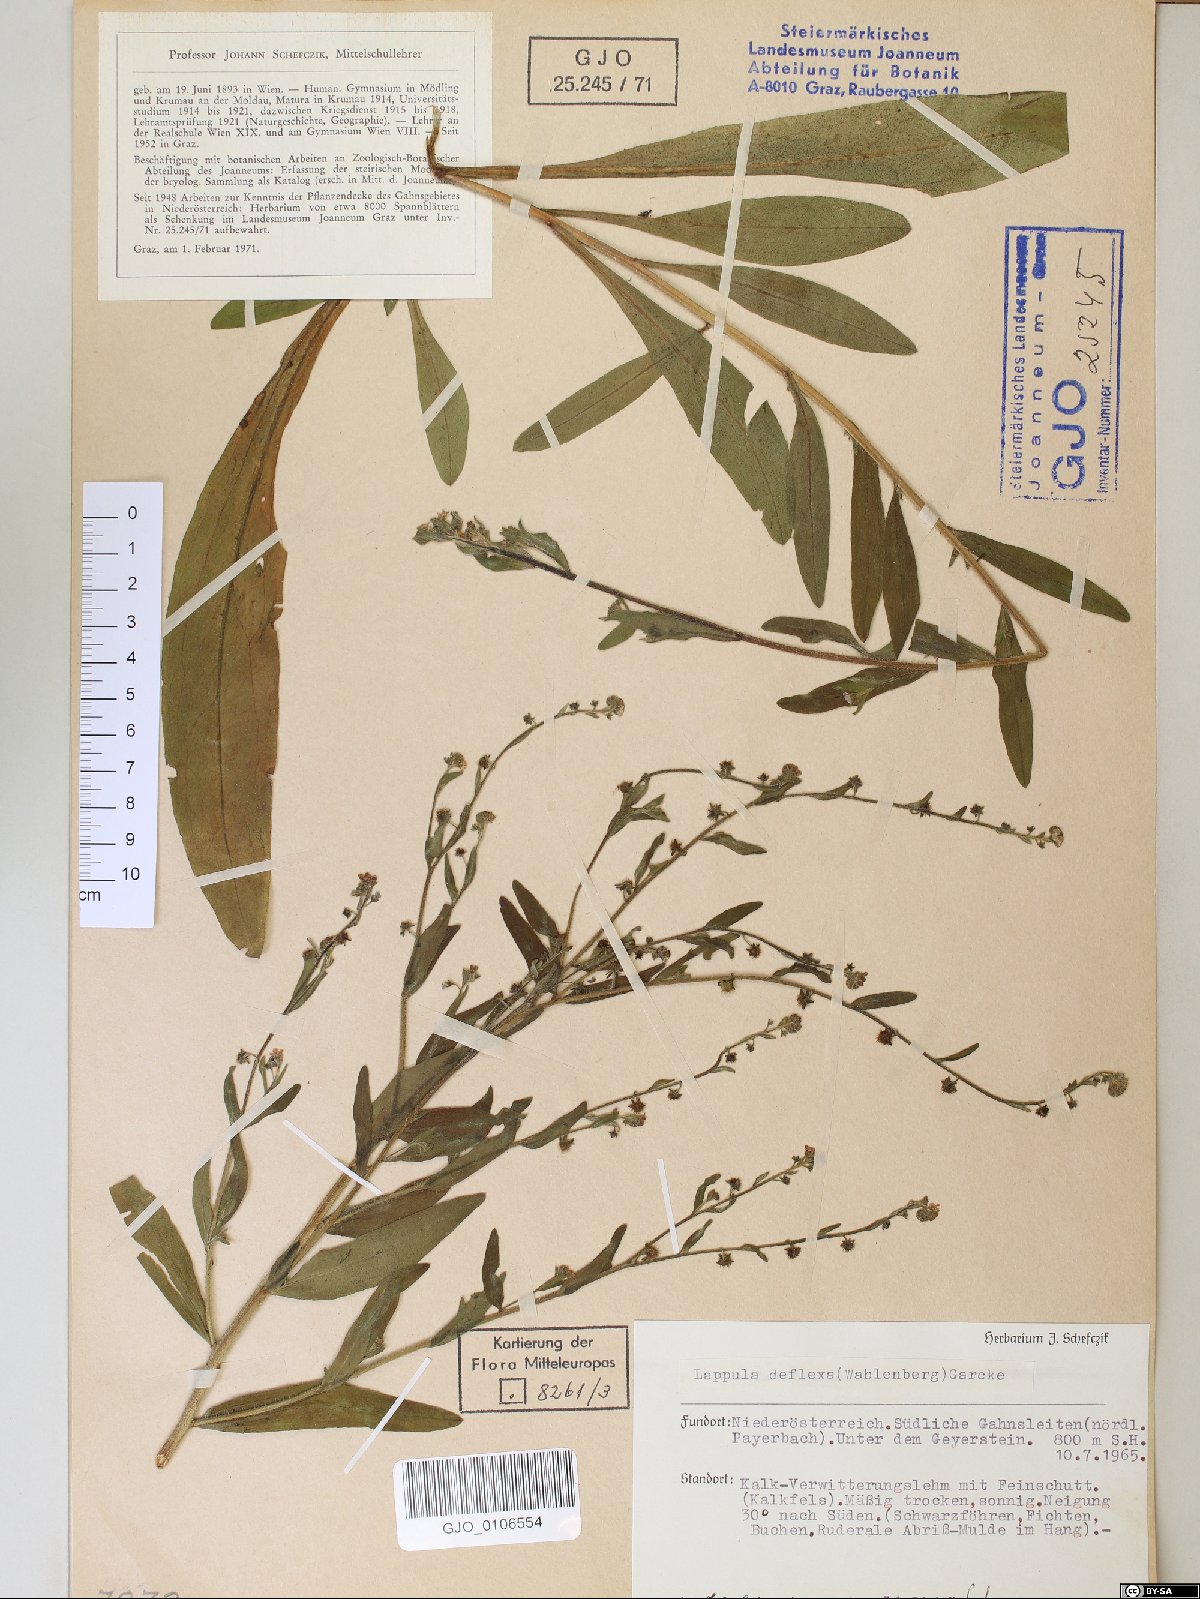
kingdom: Plantae
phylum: Tracheophyta
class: Magnoliopsida
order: Boraginales
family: Boraginaceae
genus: Hackelia
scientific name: Hackelia deflexa
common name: Nodding stickseed
